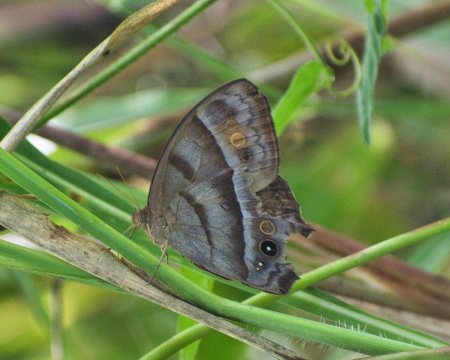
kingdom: Animalia
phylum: Arthropoda
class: Insecta
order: Lepidoptera
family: Nymphalidae
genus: Taygetis
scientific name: Taygetis thamyra
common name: Thamyra Satyr
